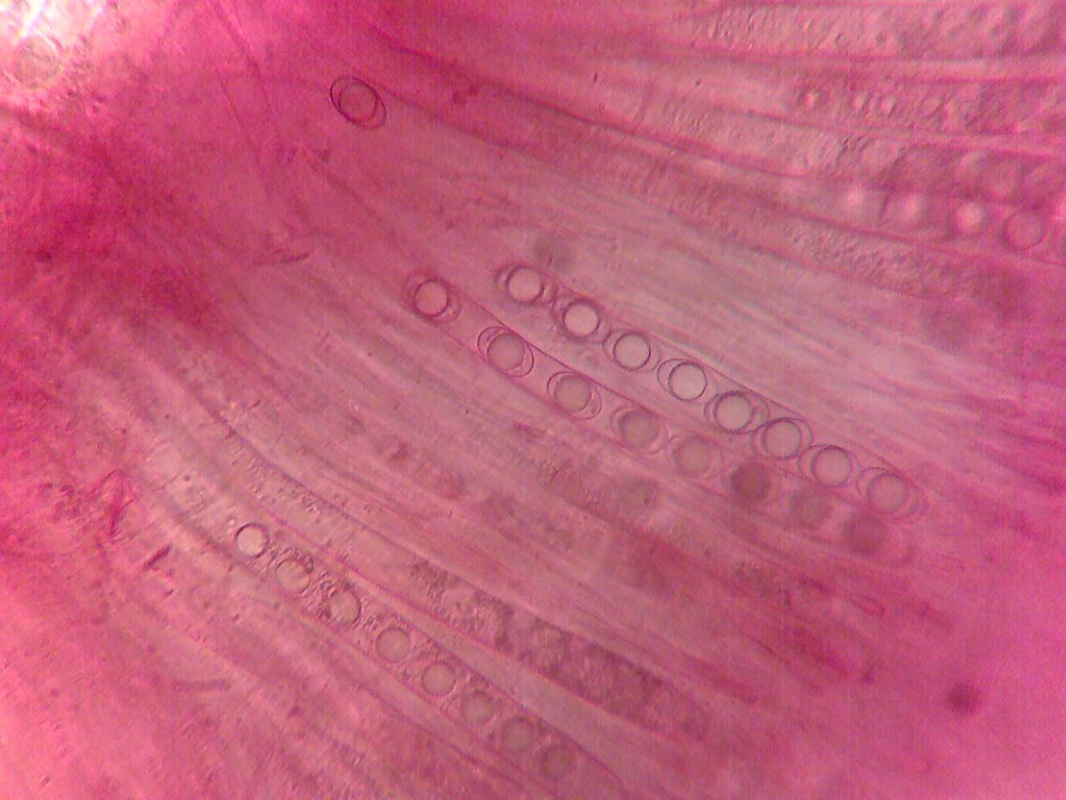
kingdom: Fungi
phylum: Ascomycota
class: Pezizomycetes
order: Pezizales
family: Helvellaceae
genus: Helvella
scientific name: Helvella fibrosa
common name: dunstokket foldhat
